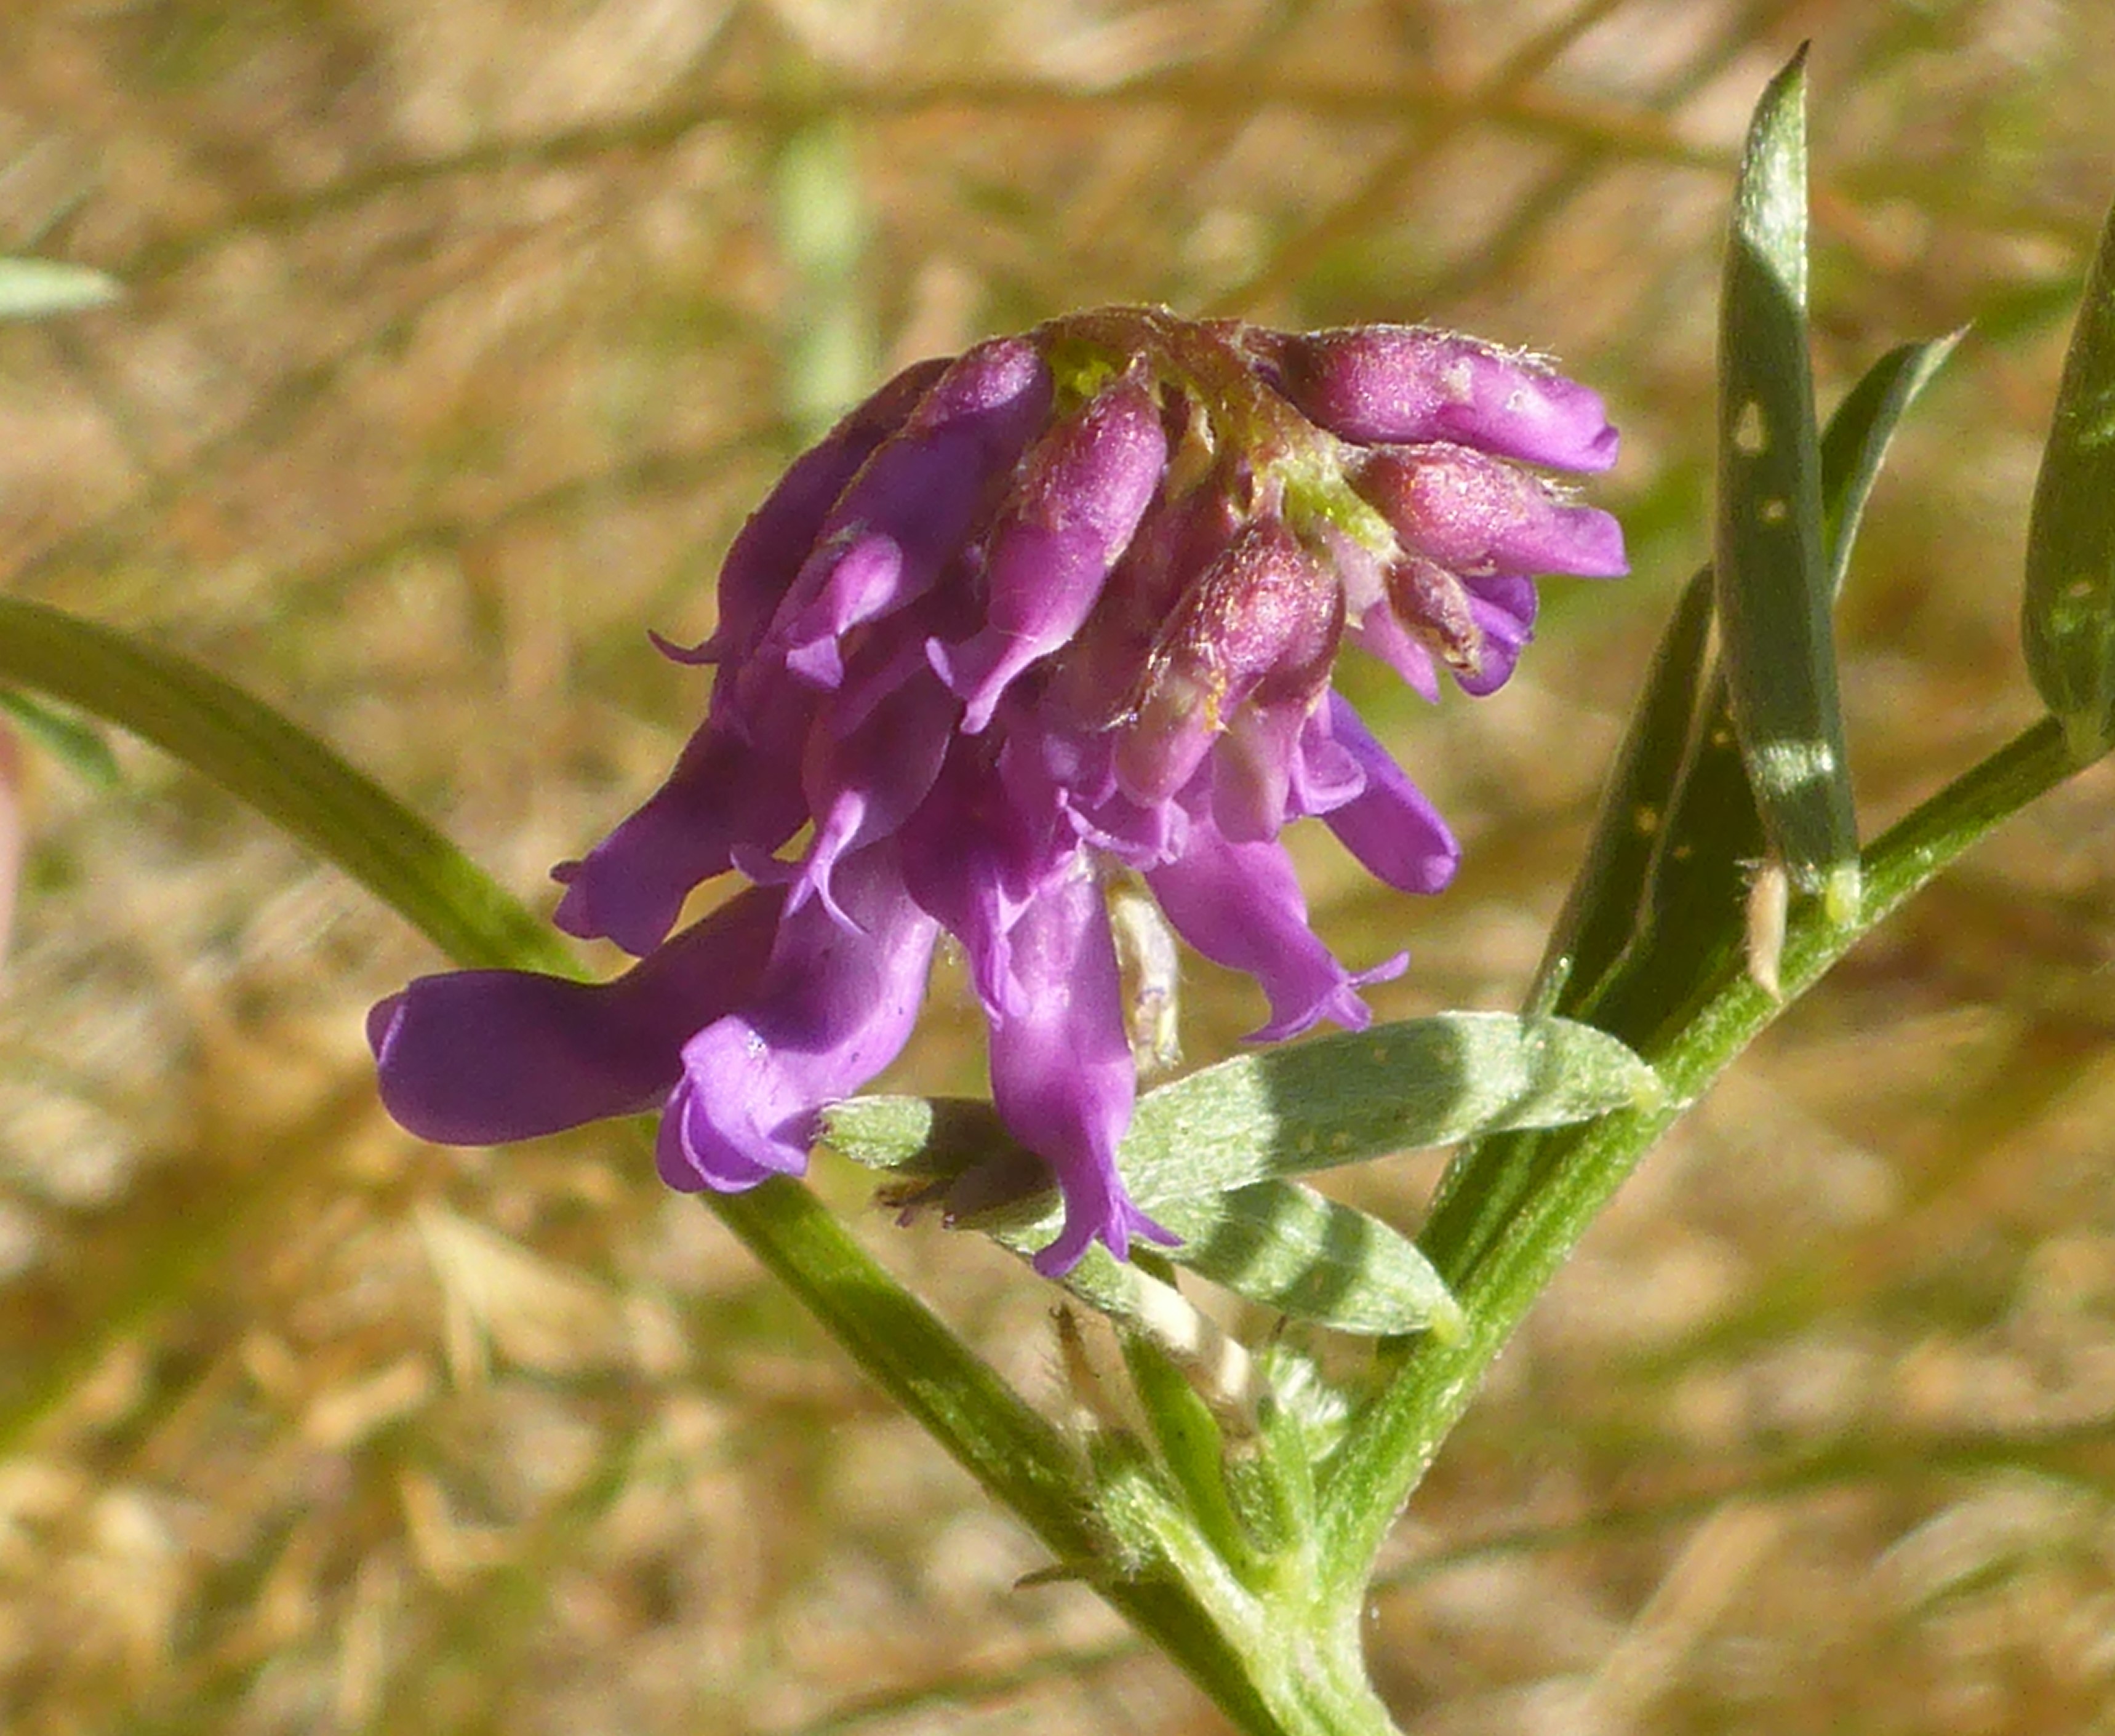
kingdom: Plantae
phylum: Tracheophyta
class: Magnoliopsida
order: Fabales
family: Fabaceae
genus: Vicia
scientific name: Vicia cracca
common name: Muse-vikke
